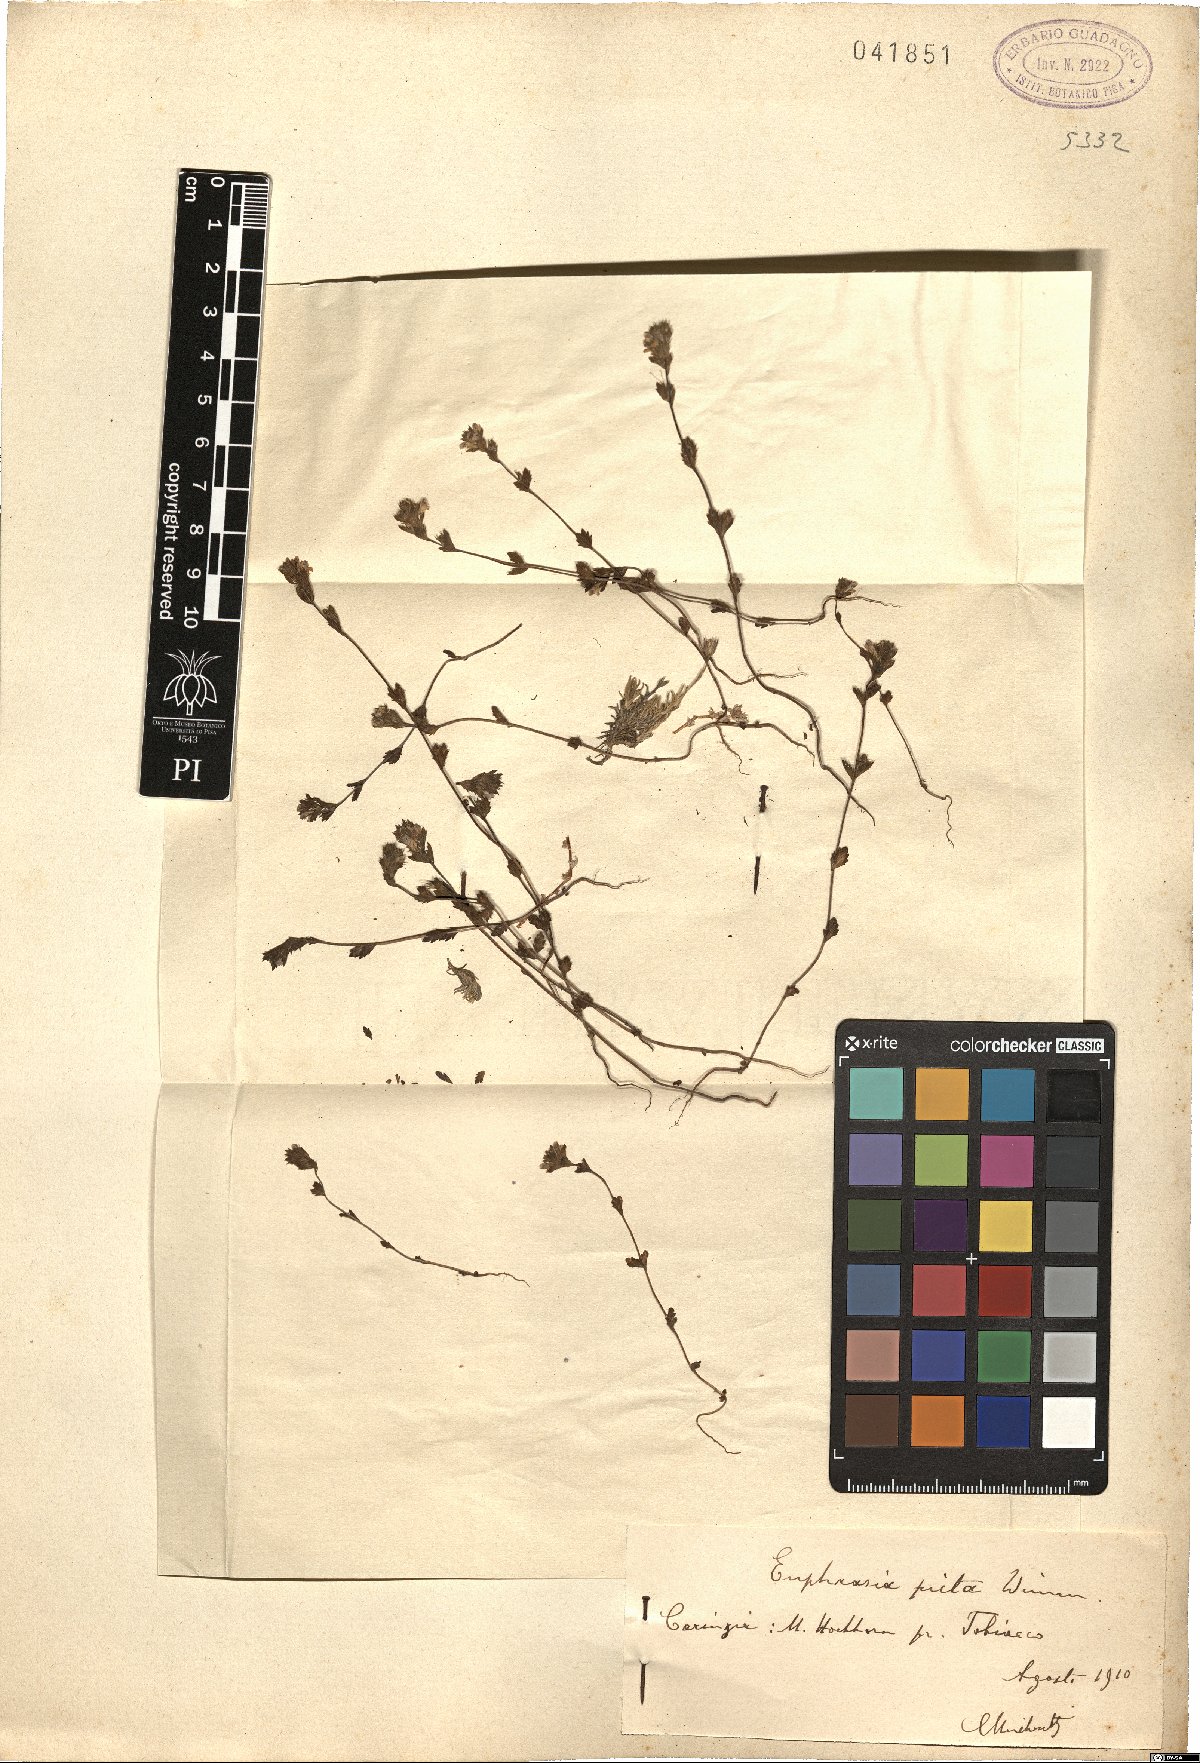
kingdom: Plantae
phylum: Tracheophyta
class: Magnoliopsida
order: Malpighiales
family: Euphorbiaceae
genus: Euphorbia
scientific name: Euphorbia graminea
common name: Grassleaf spurge
